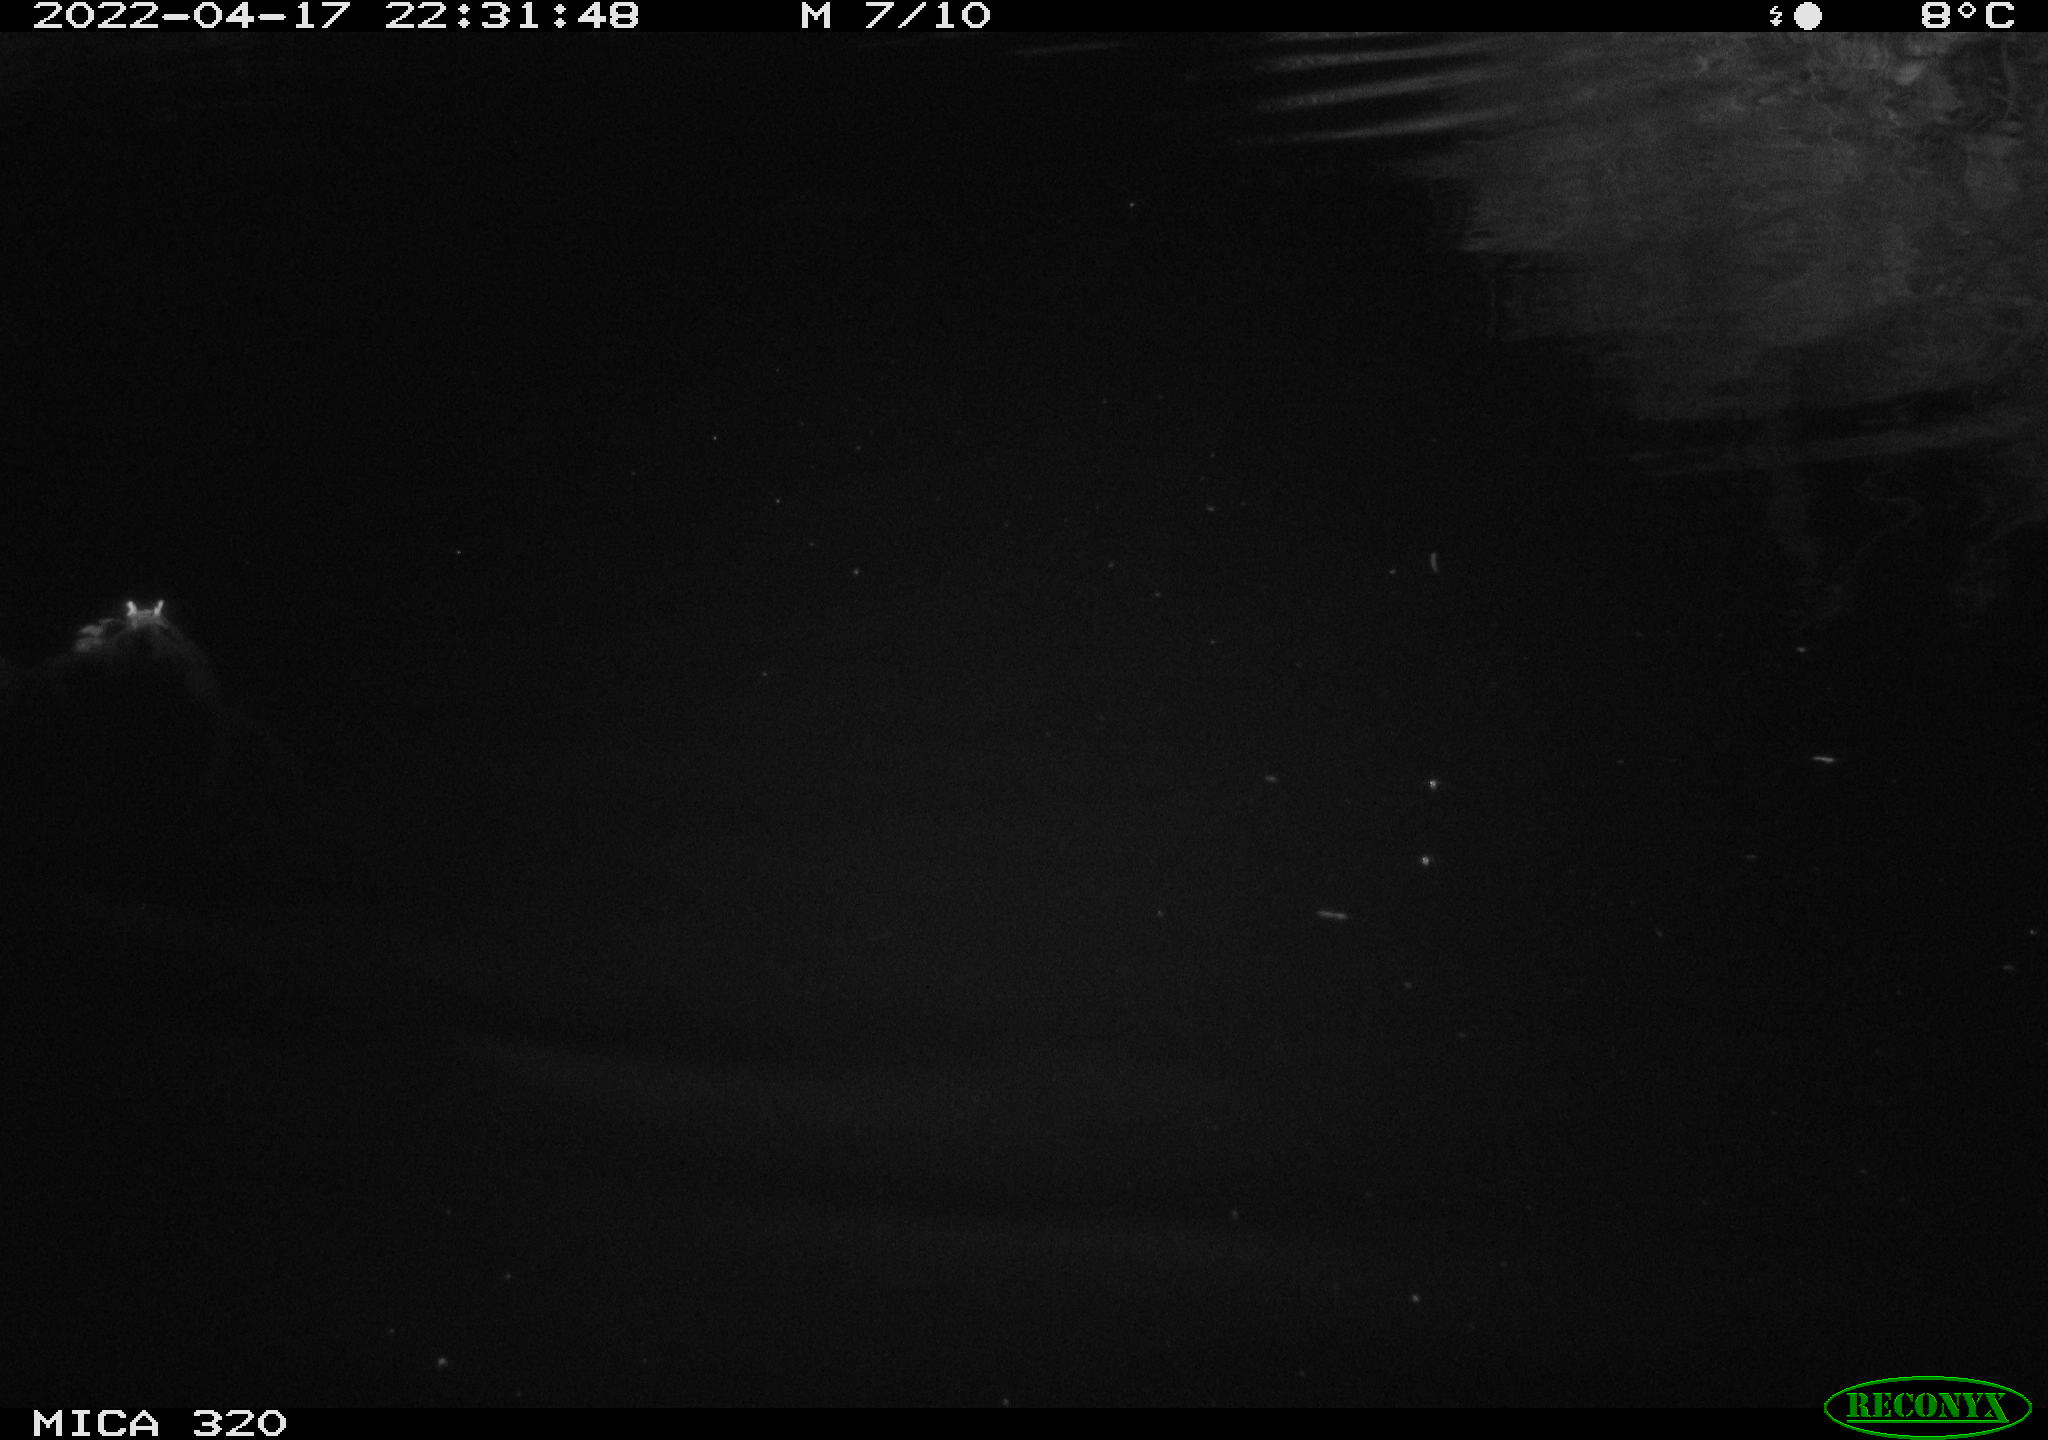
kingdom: Animalia
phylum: Chordata
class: Aves
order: Anseriformes
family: Anatidae
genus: Anas
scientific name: Anas platyrhynchos
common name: Mallard
